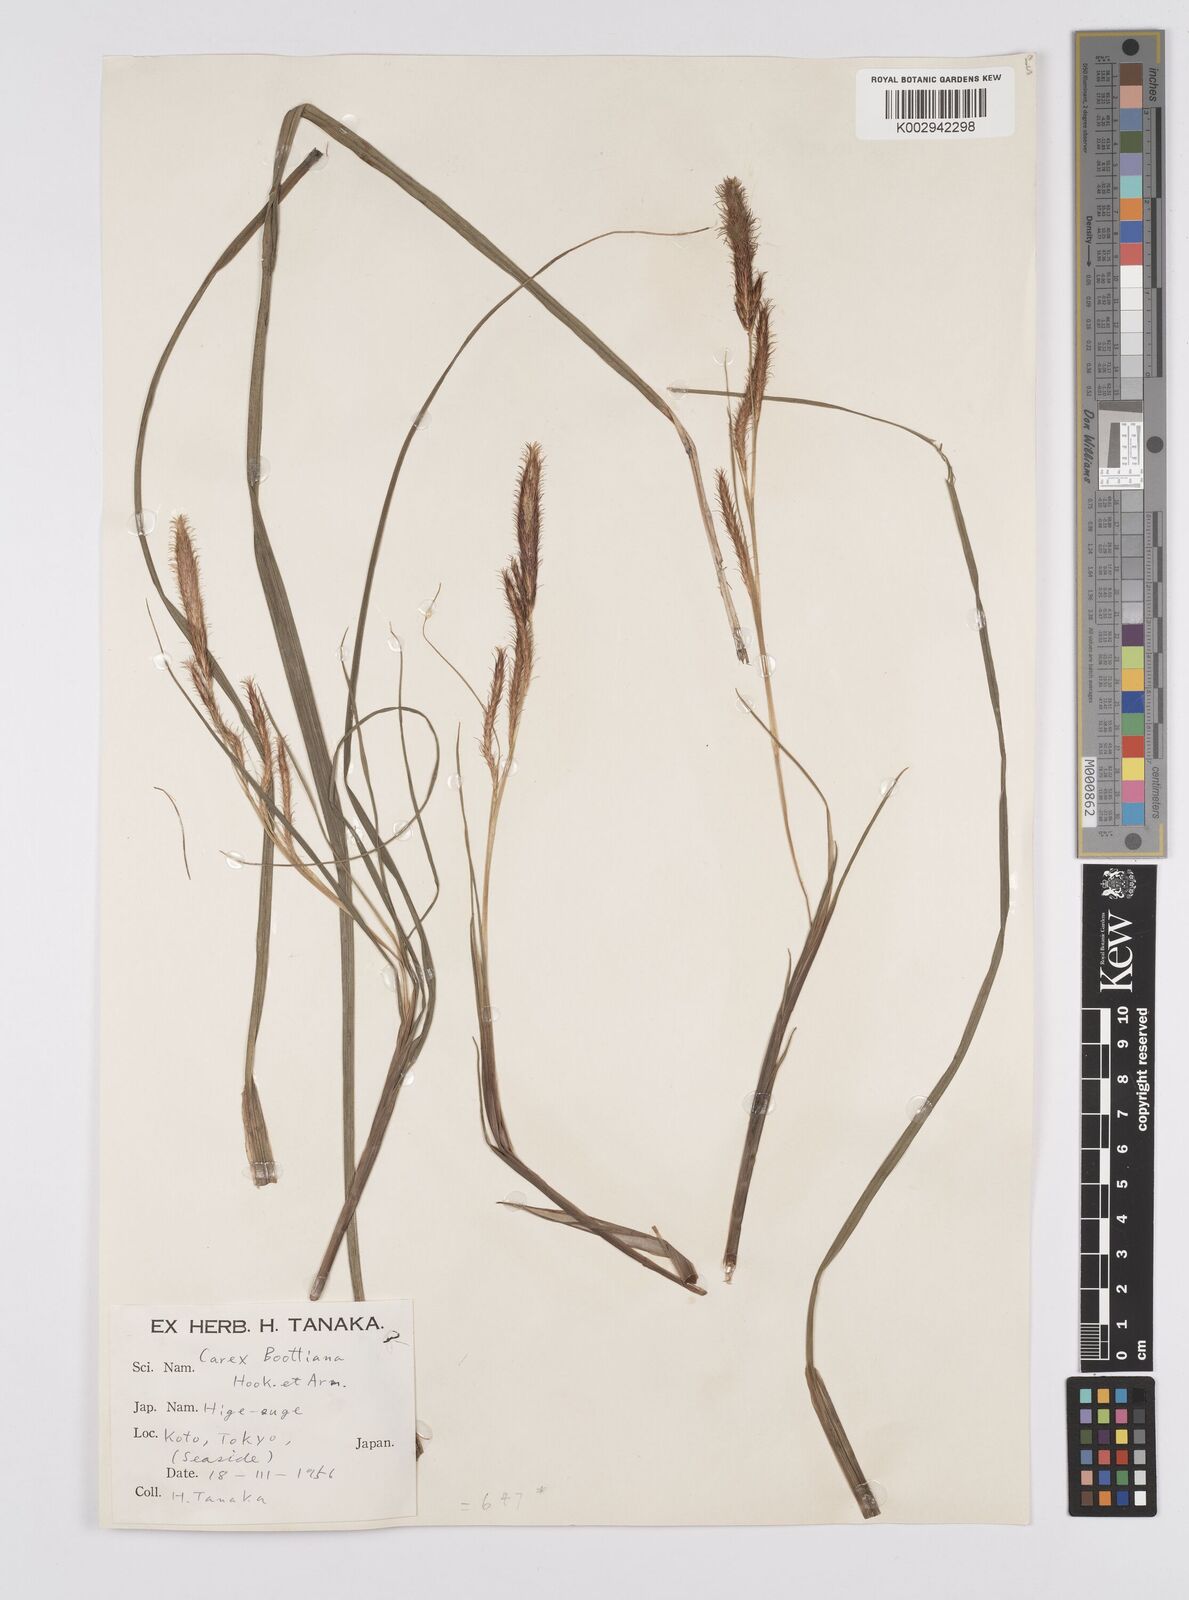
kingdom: Plantae
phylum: Tracheophyta
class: Liliopsida
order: Poales
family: Cyperaceae
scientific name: Cyperaceae
